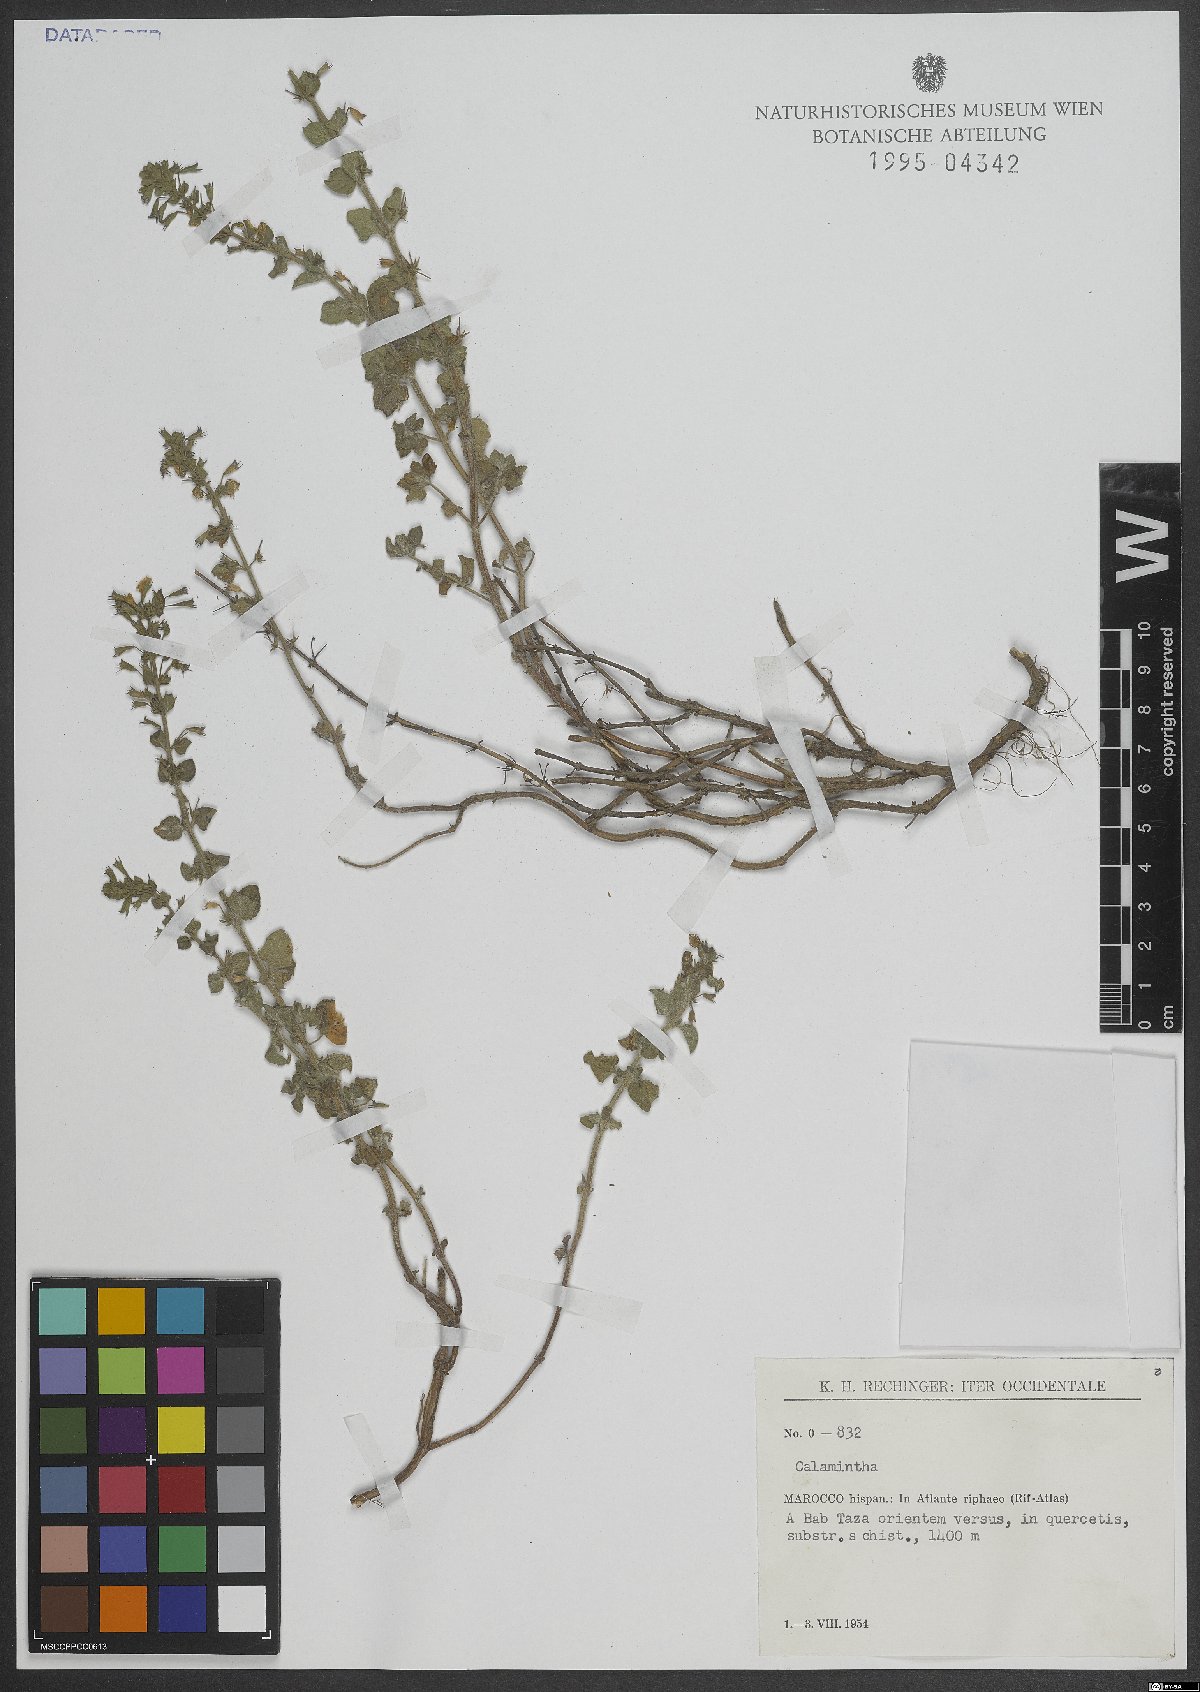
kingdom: Plantae
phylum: Tracheophyta
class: Magnoliopsida
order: Lamiales
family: Lamiaceae
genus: Calamintha
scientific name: Calamintha
